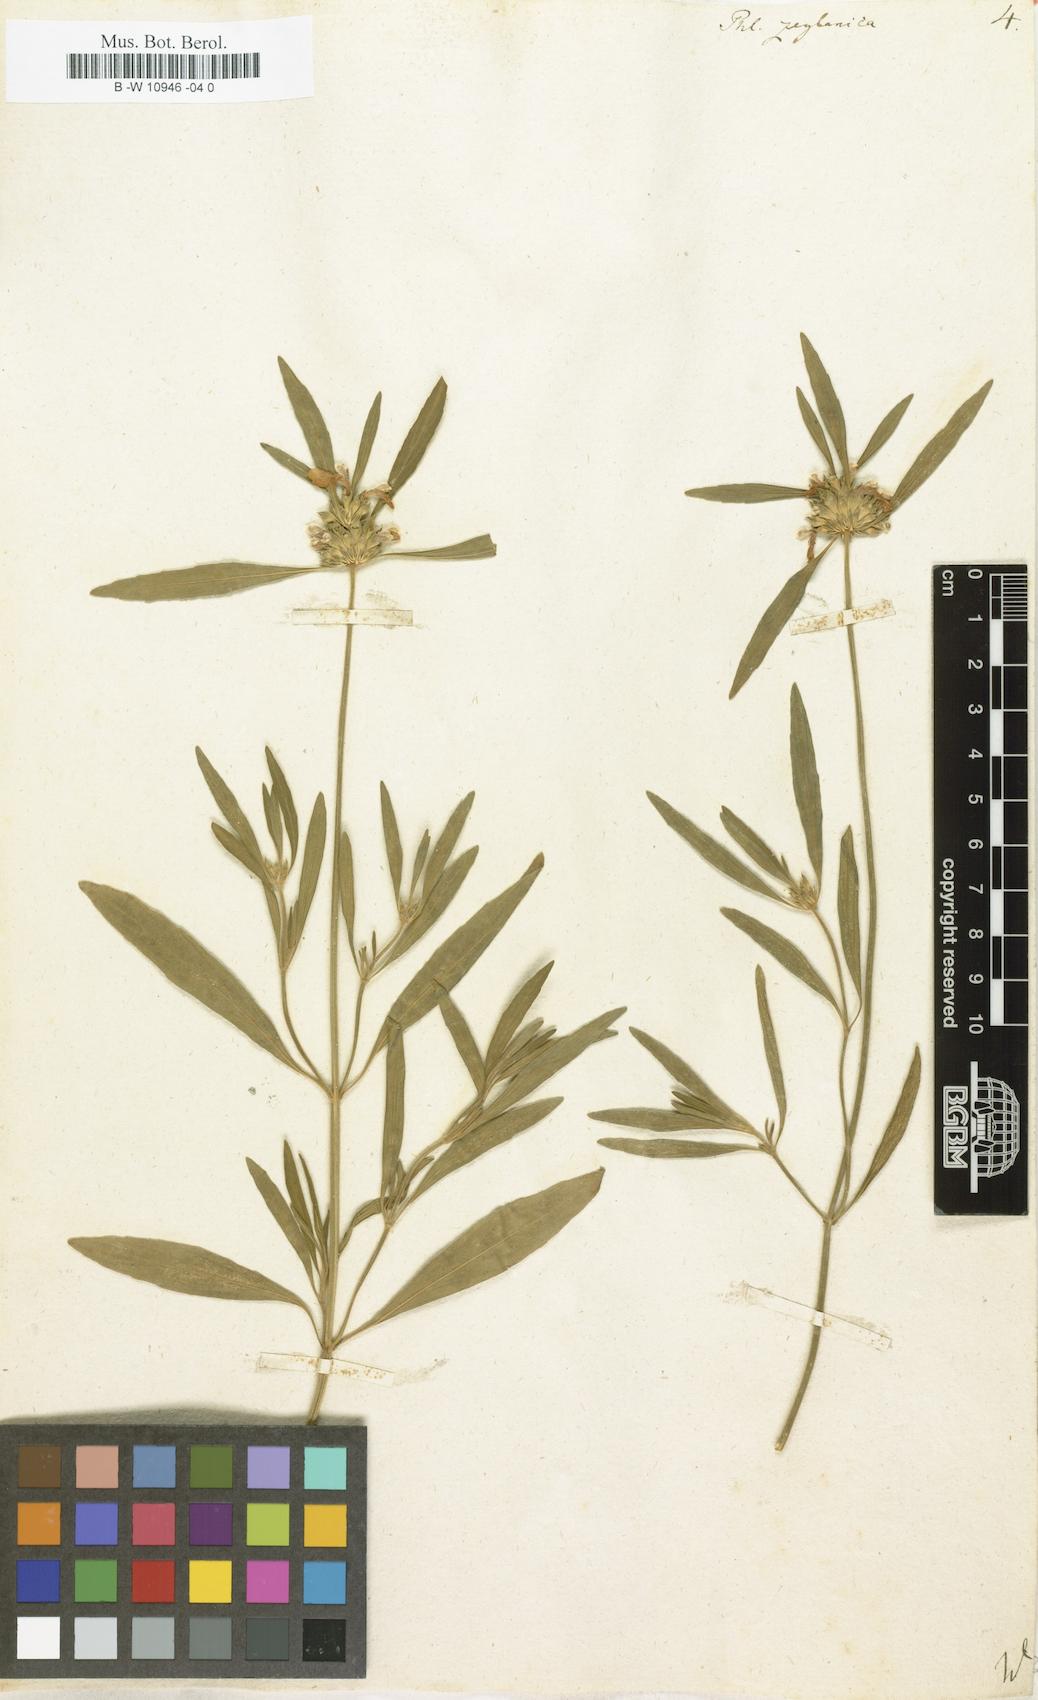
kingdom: Plantae
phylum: Tracheophyta
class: Magnoliopsida
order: Lamiales
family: Lamiaceae
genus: Phlomis
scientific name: Phlomis zeylanica
